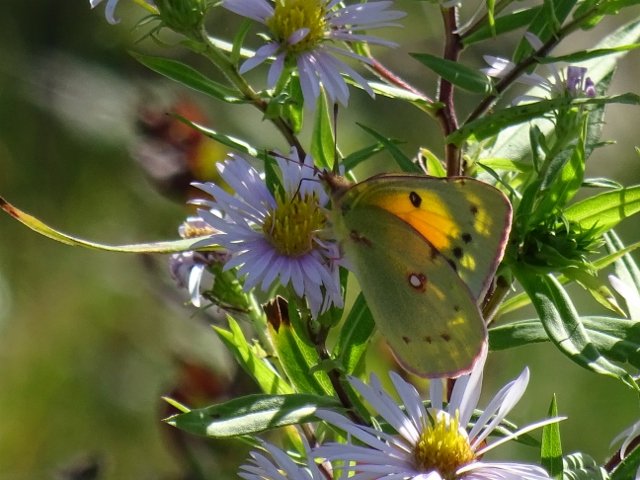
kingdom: Animalia
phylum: Arthropoda
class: Insecta
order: Lepidoptera
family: Pieridae
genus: Colias
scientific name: Colias eurytheme
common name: Orange Sulphur
